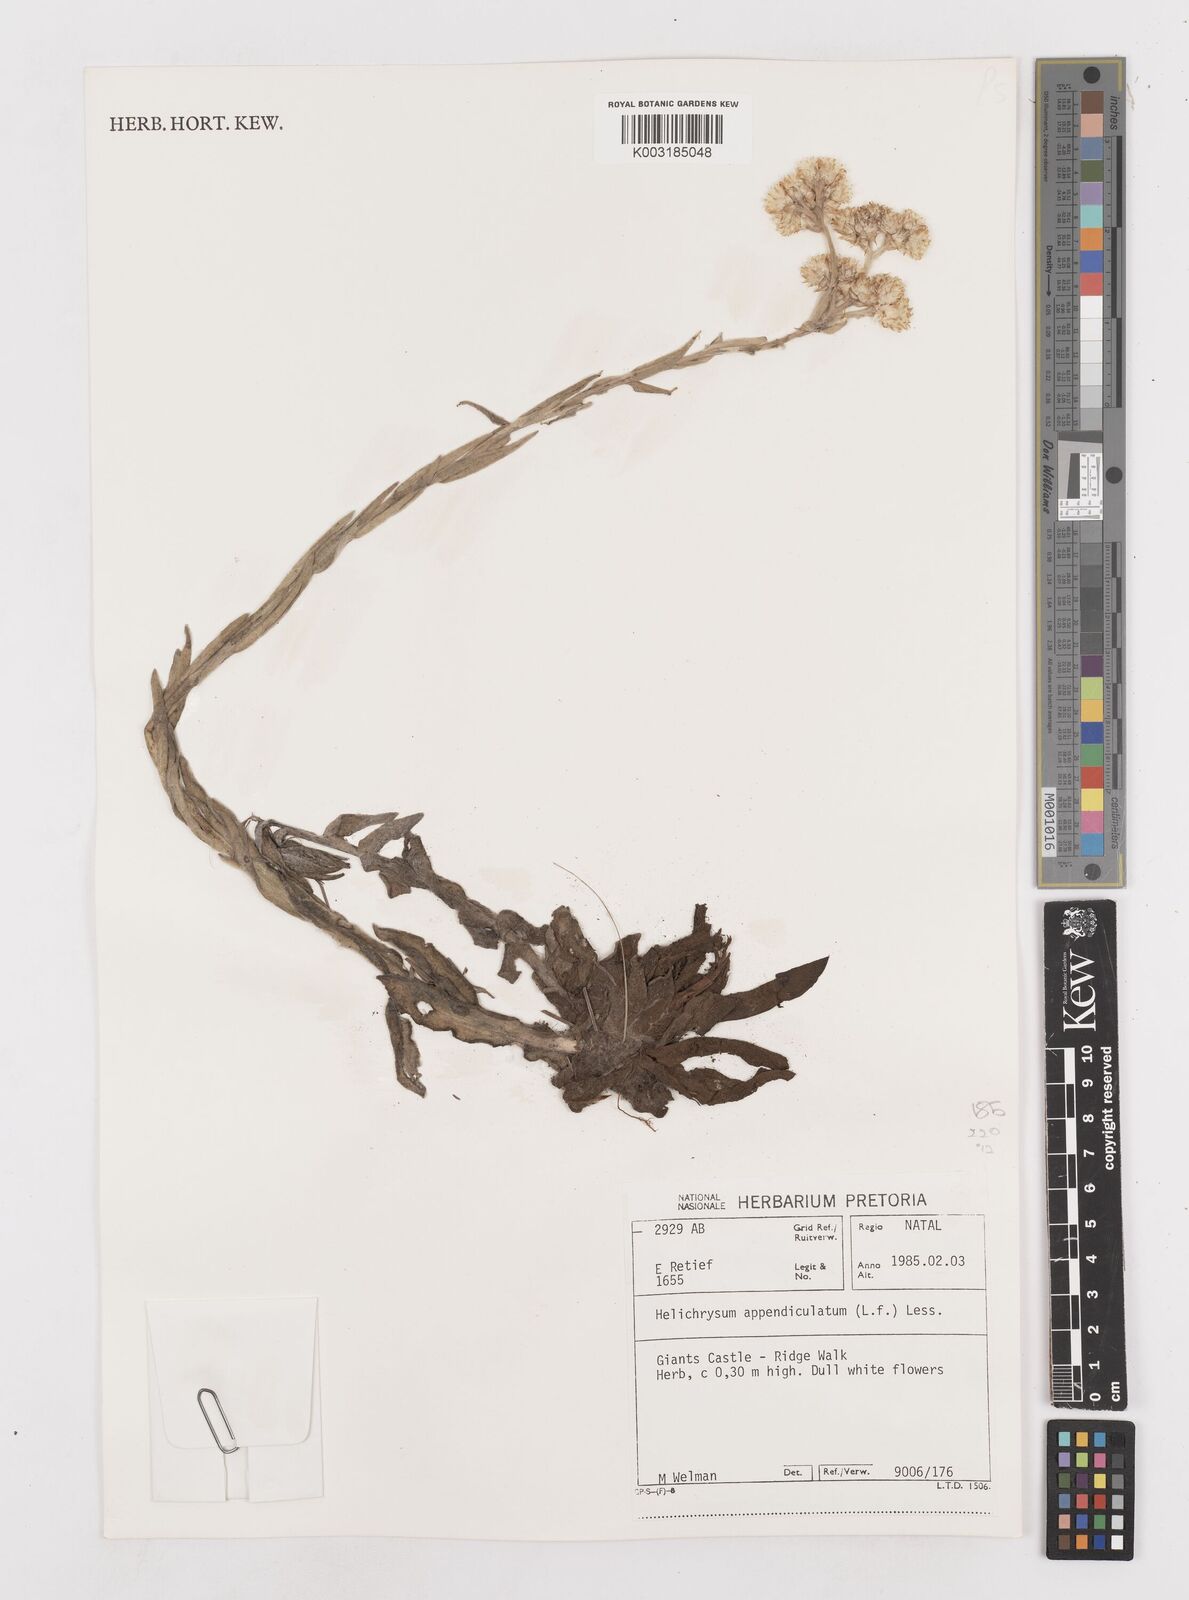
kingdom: Plantae
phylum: Tracheophyta
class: Magnoliopsida
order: Asterales
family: Asteraceae
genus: Helichrysum
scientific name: Helichrysum appendiculatum
